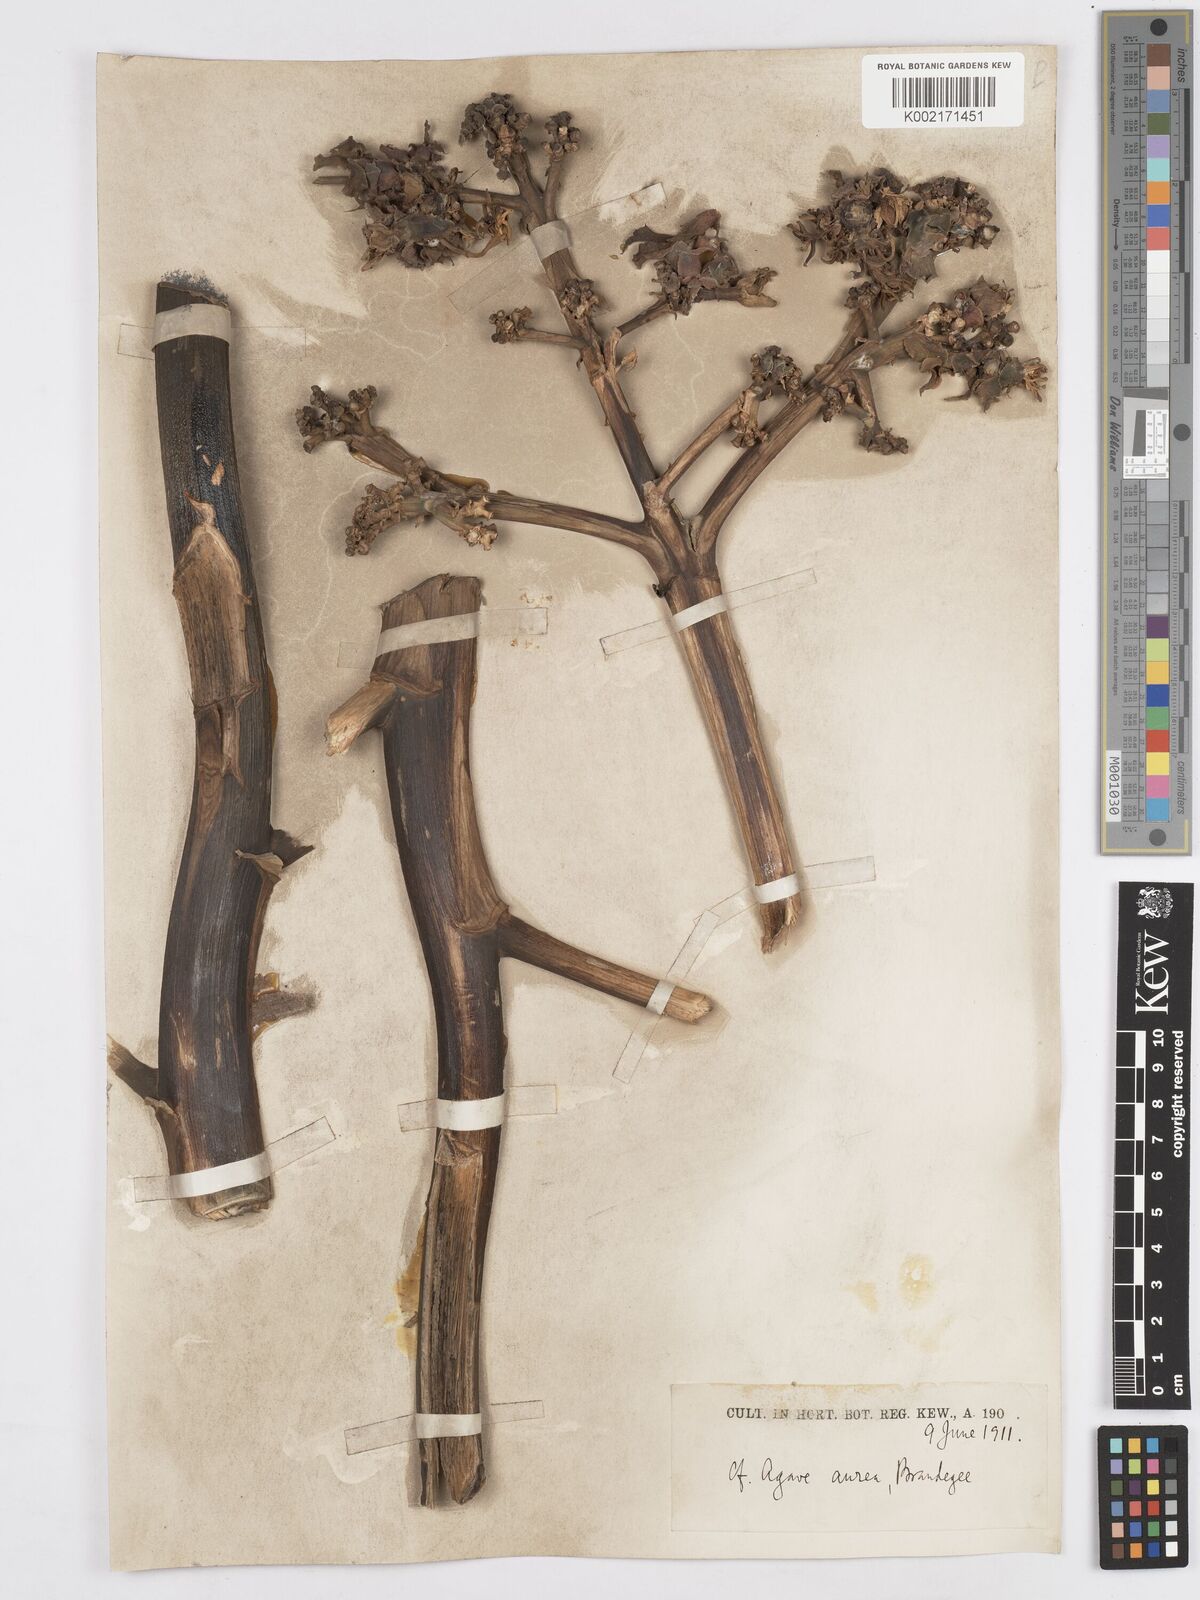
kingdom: Plantae
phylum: Tracheophyta
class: Liliopsida
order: Asparagales
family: Asparagaceae
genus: Agave
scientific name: Agave aurea
